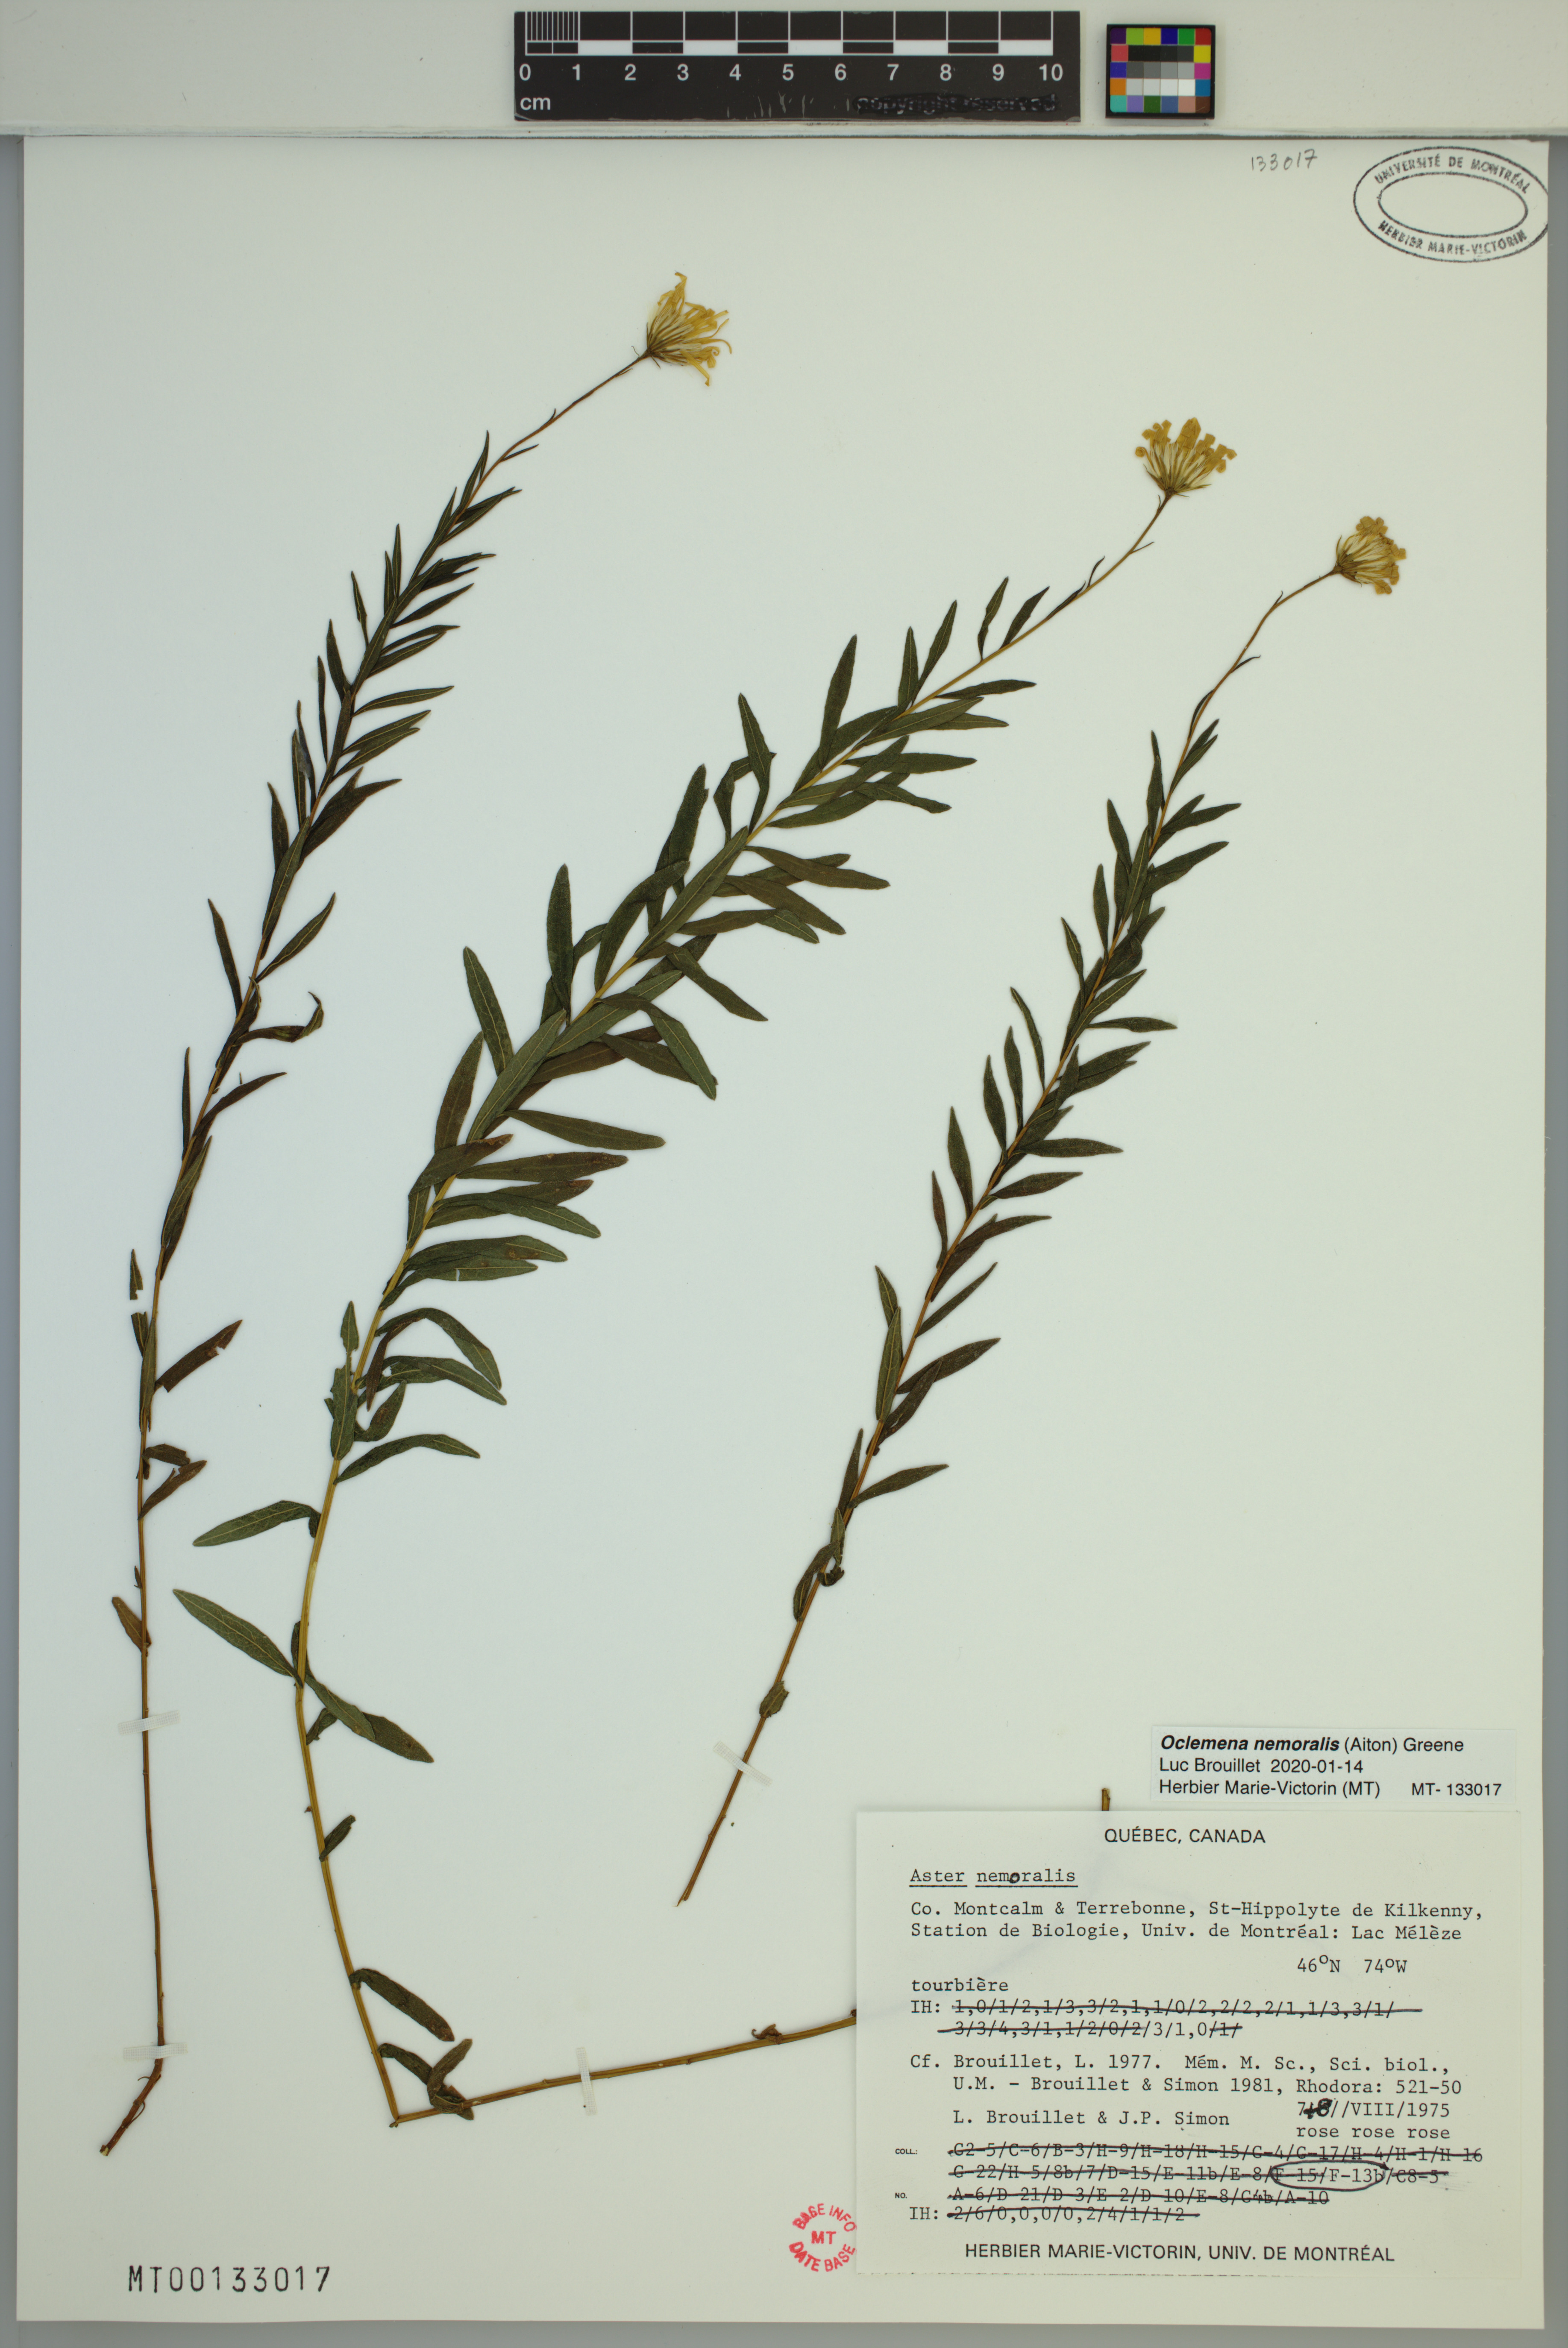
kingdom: Plantae
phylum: Tracheophyta
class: Magnoliopsida
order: Asterales
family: Asteraceae
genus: Oclemena
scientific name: Oclemena nemoralis
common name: Bog aster
